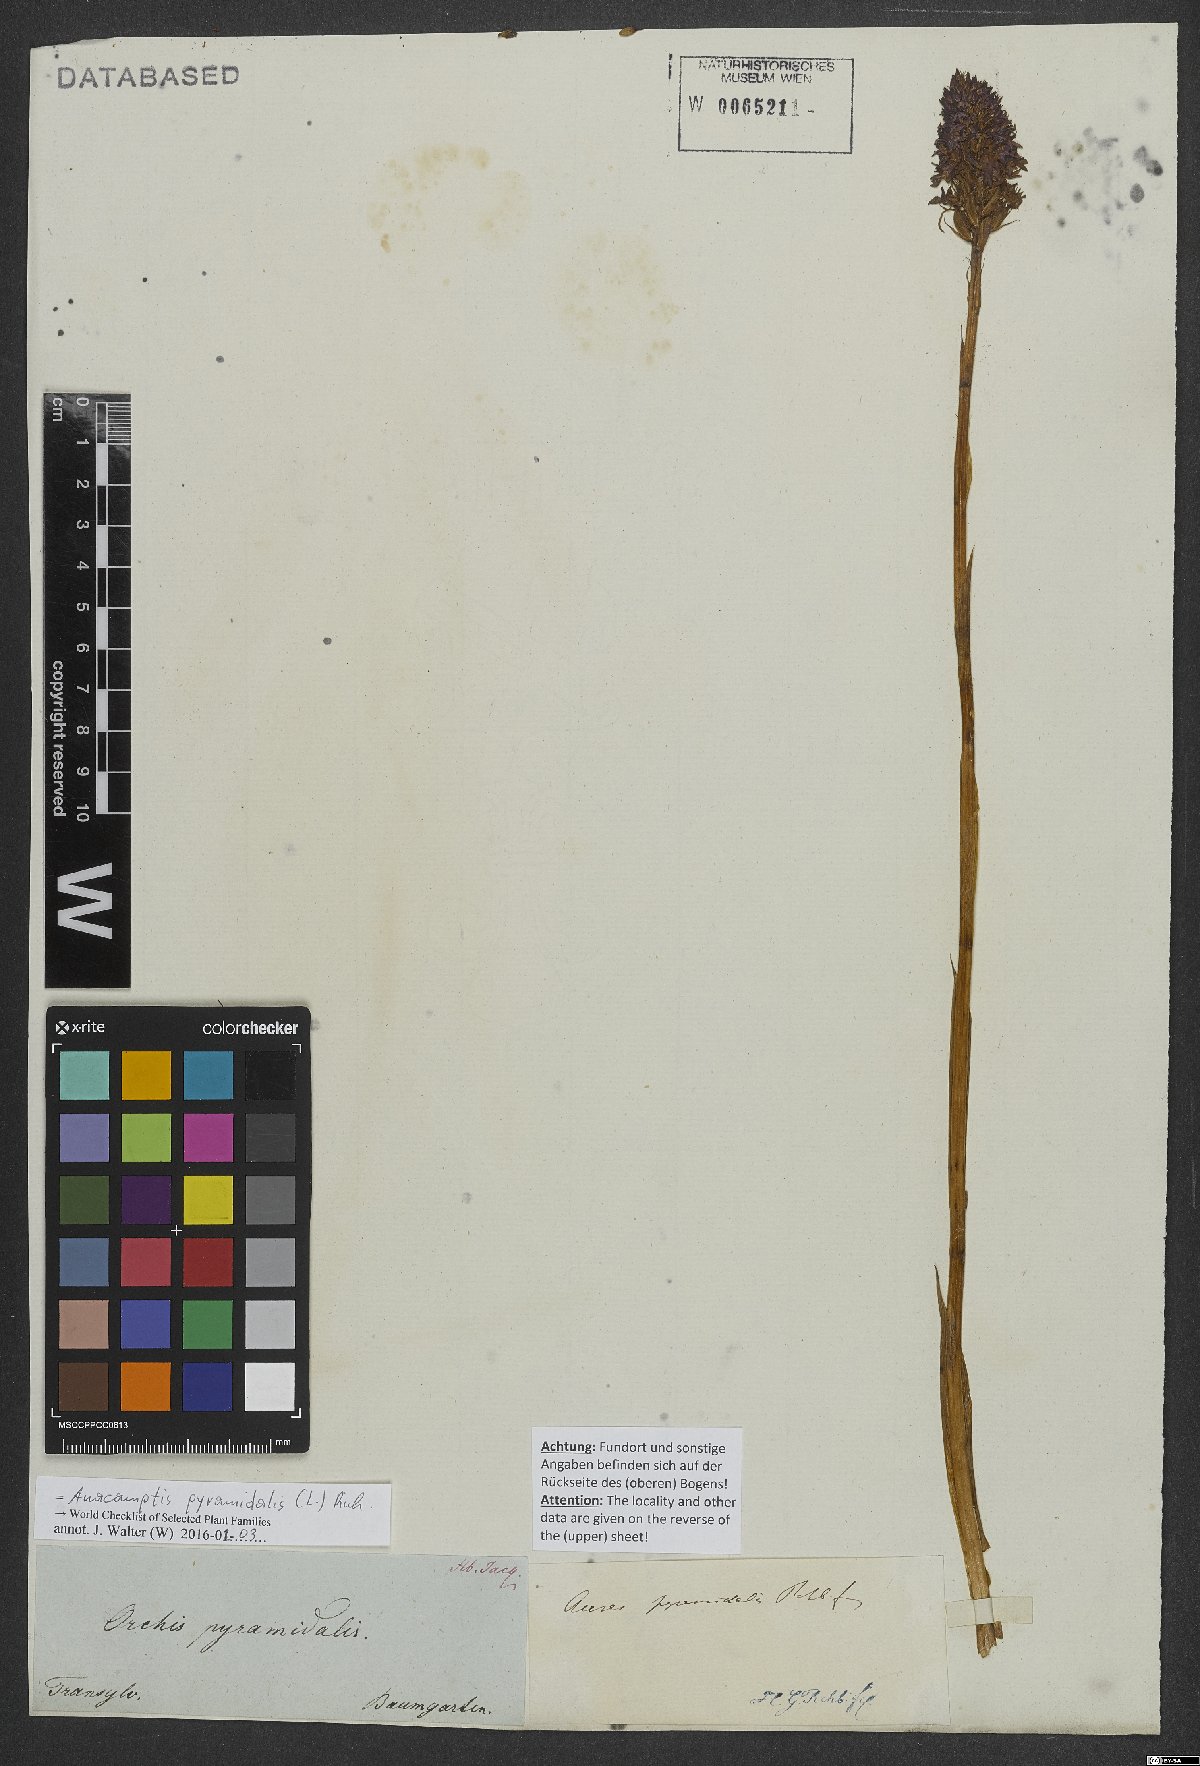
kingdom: Plantae
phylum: Tracheophyta
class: Liliopsida
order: Asparagales
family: Orchidaceae
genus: Anacamptis
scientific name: Anacamptis pyramidalis
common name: Pyramidal orchid
